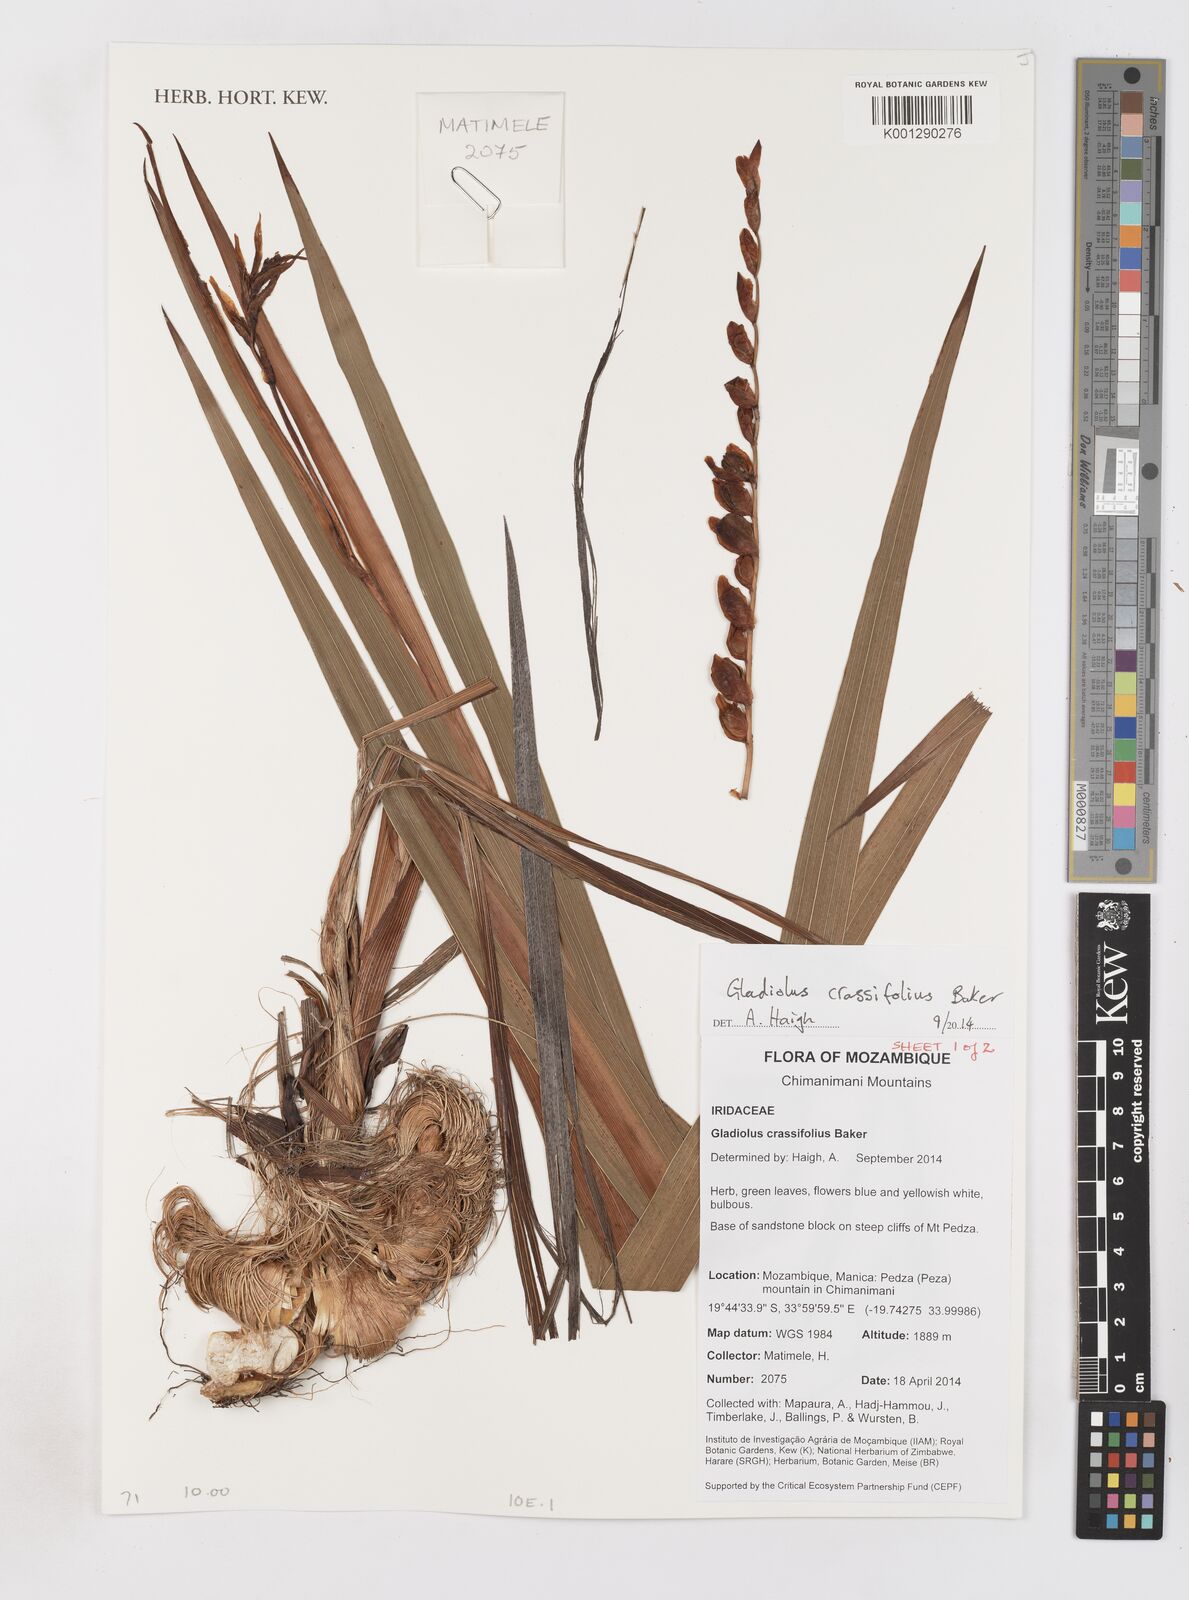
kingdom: Plantae
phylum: Tracheophyta
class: Liliopsida
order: Asparagales
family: Iridaceae
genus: Gladiolus
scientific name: Gladiolus crassifolius
